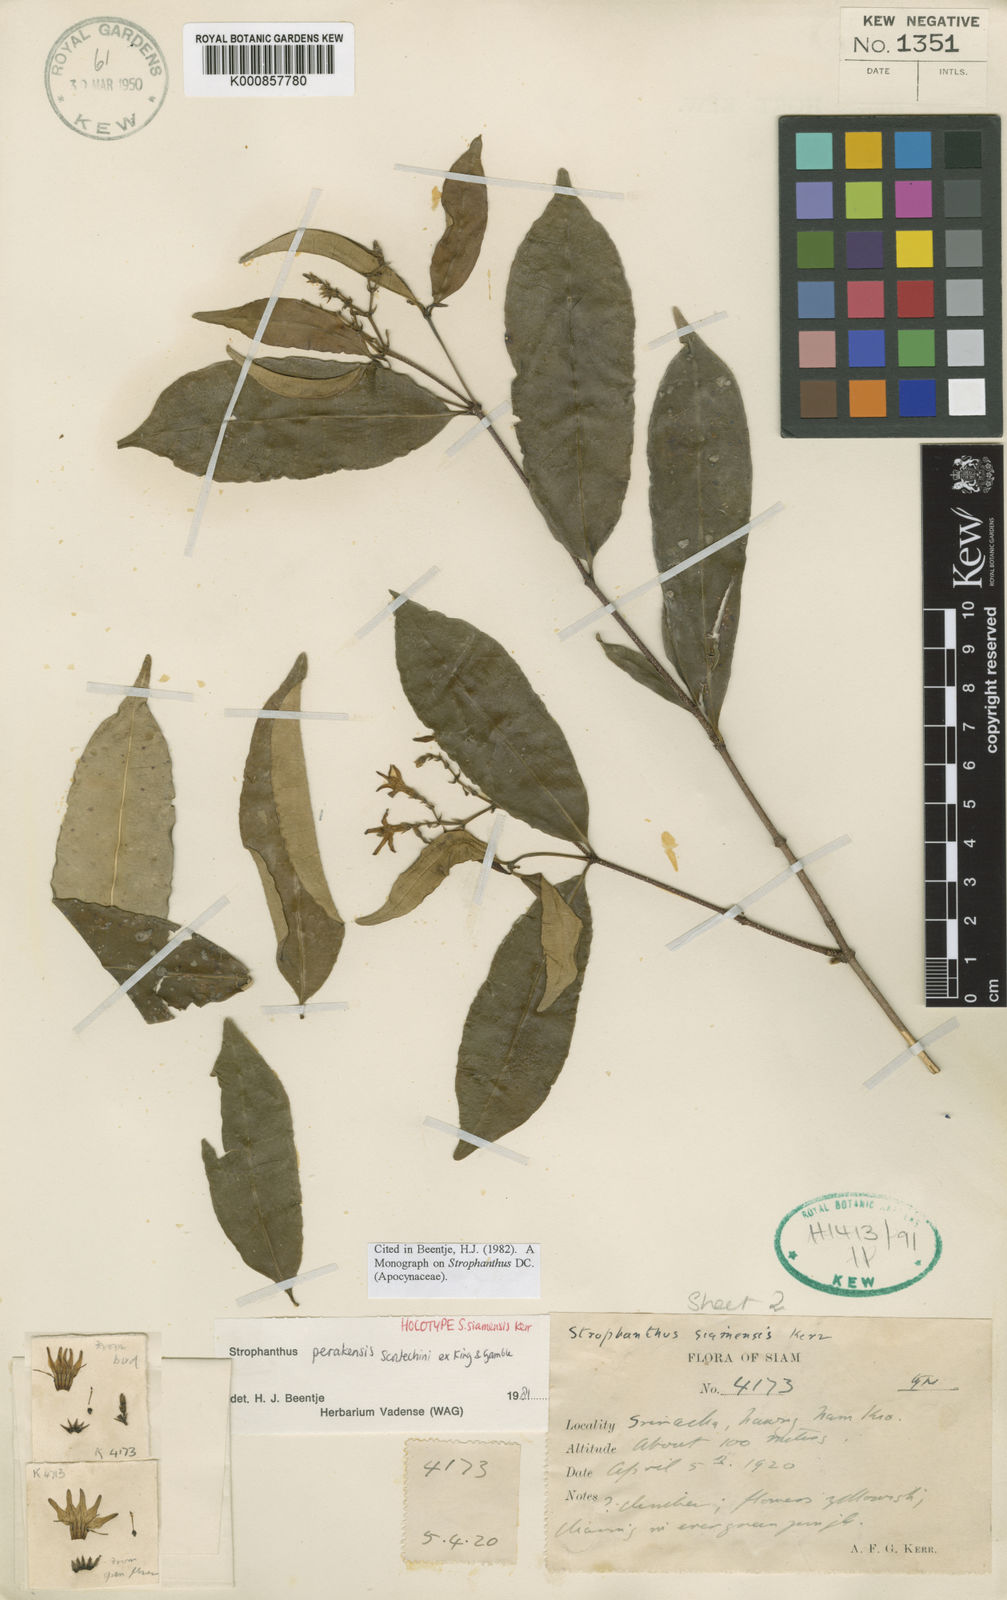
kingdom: Plantae
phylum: Tracheophyta
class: Magnoliopsida
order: Gentianales
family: Apocynaceae
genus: Strophanthus
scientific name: Strophanthus perakensis
